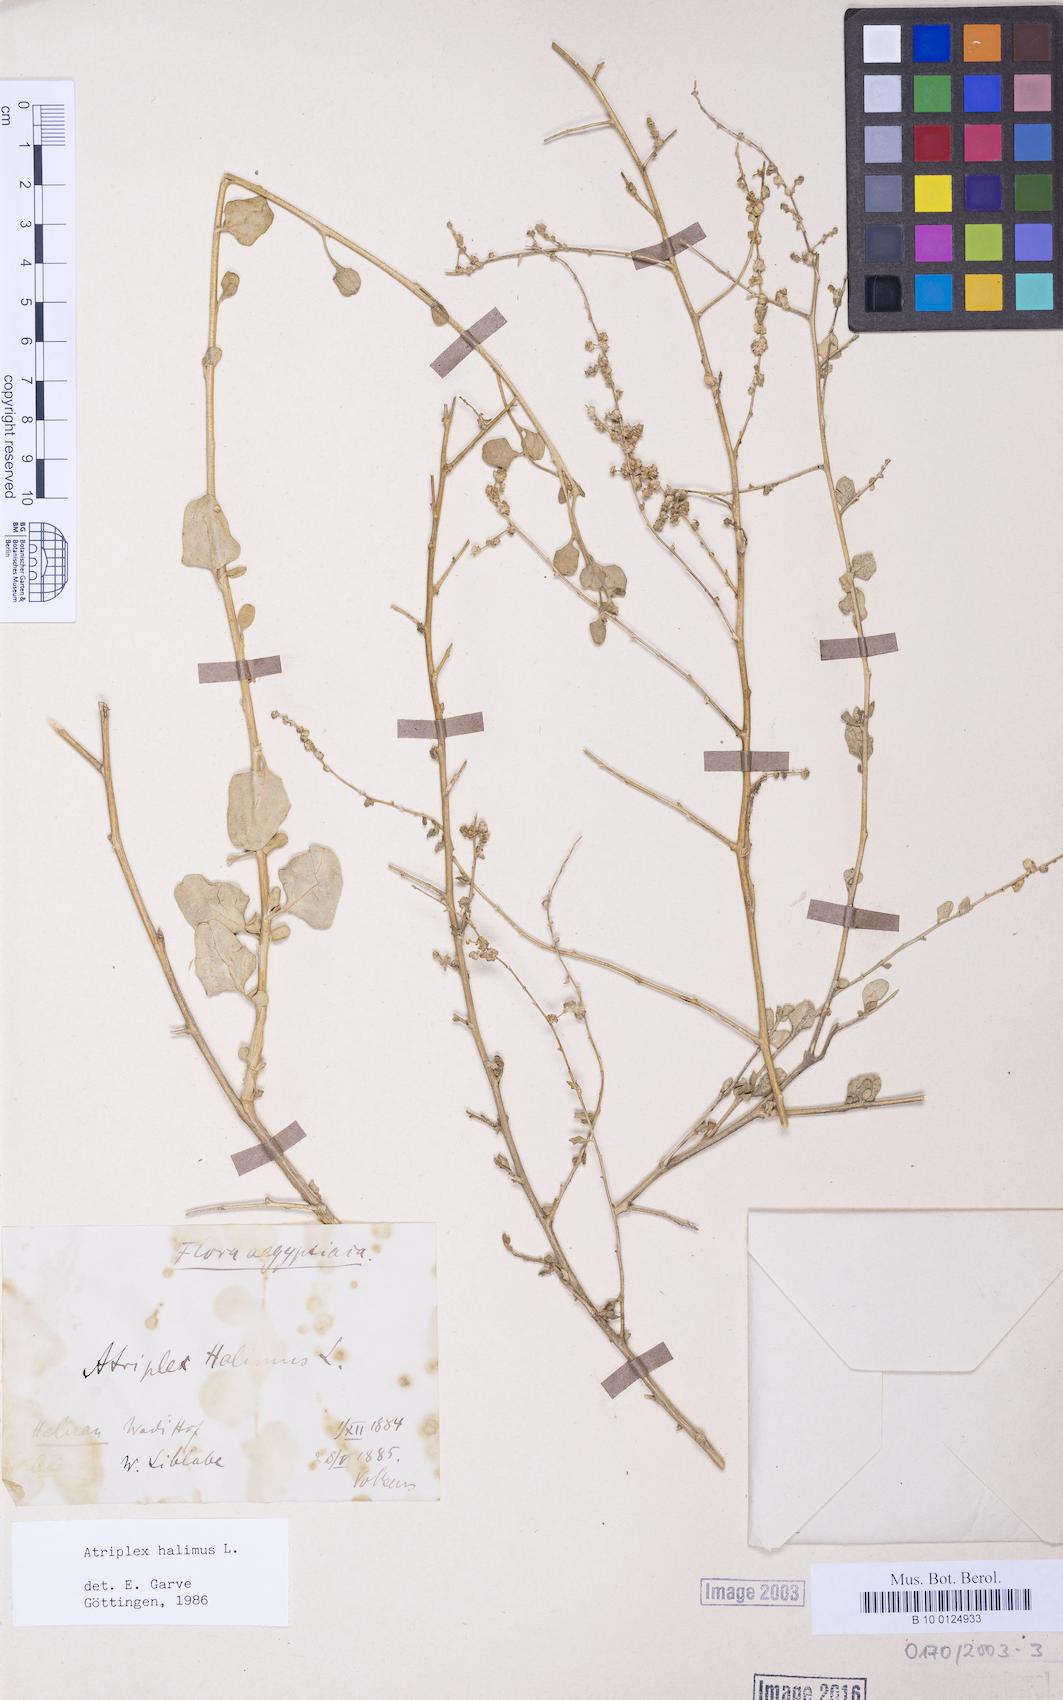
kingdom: Plantae
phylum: Tracheophyta
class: Magnoliopsida
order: Caryophyllales
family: Amaranthaceae
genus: Atriplex
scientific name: Atriplex halimus
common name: Shrubby orache
